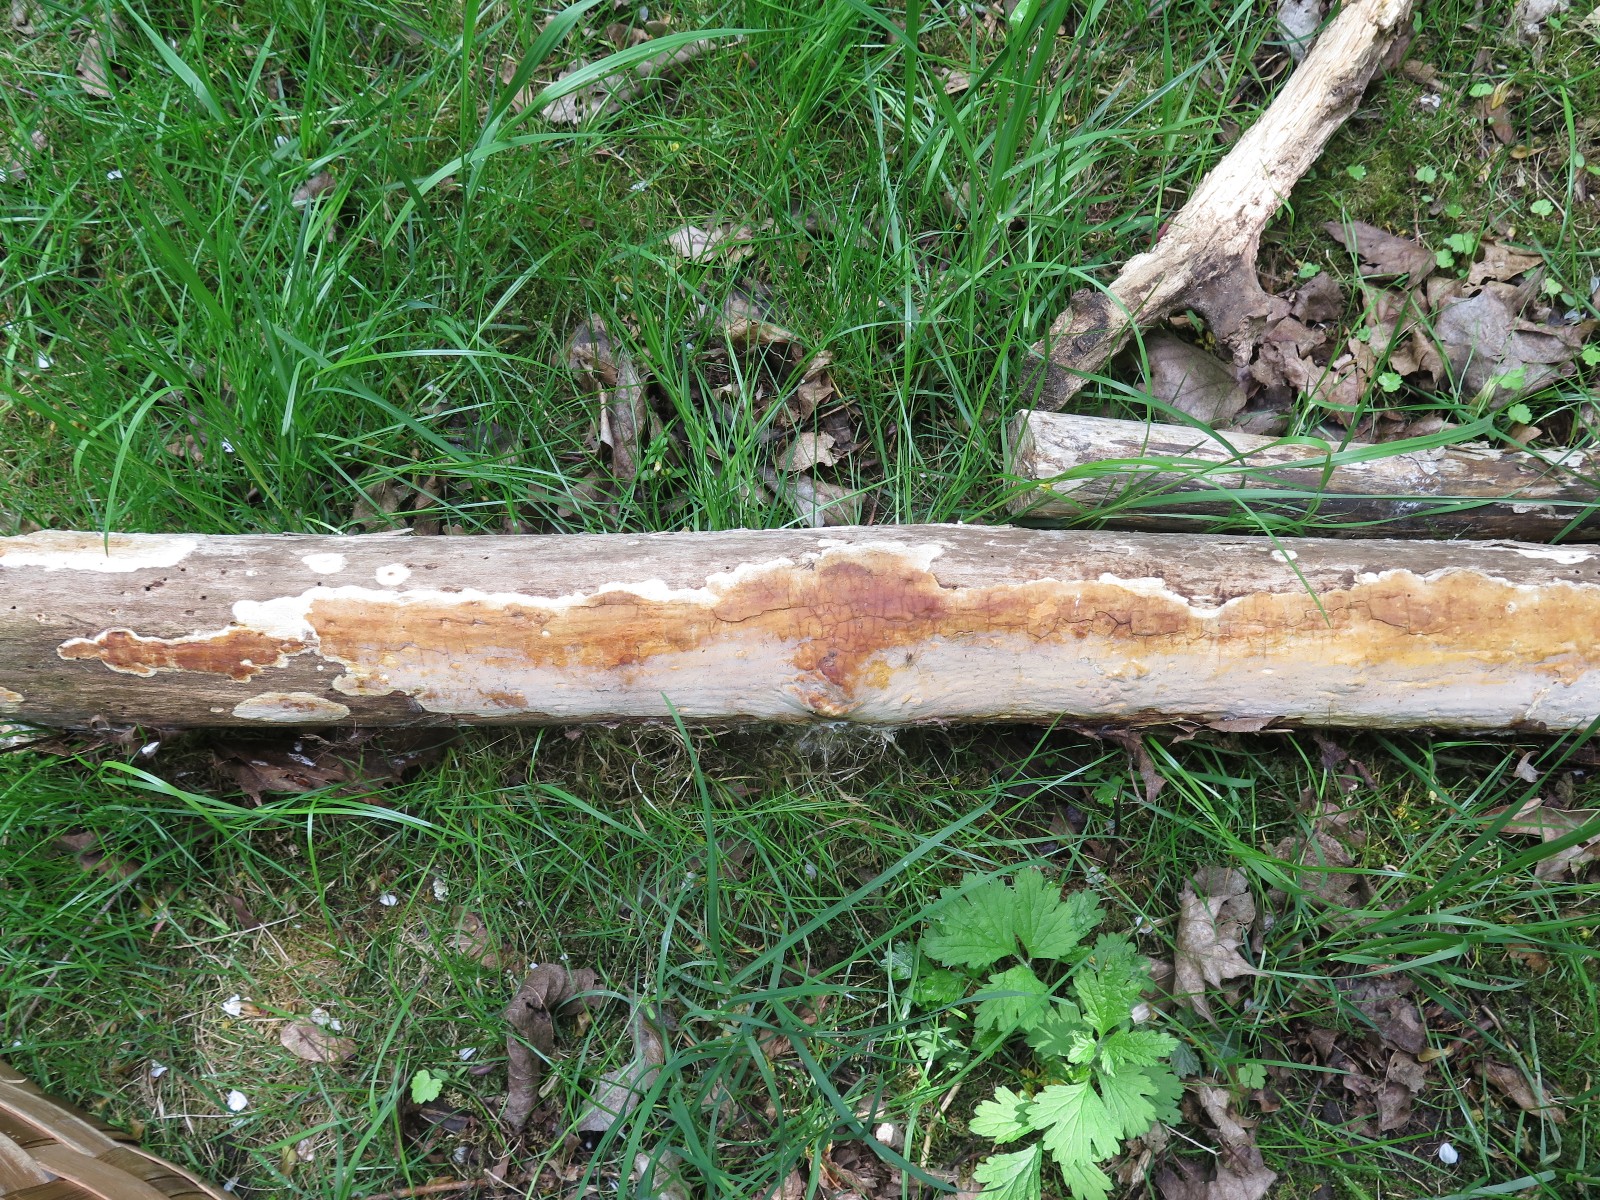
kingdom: Fungi
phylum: Basidiomycota
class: Agaricomycetes
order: Russulales
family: Peniophoraceae
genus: Scytinostroma
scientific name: Scytinostroma hemidichophyticum
